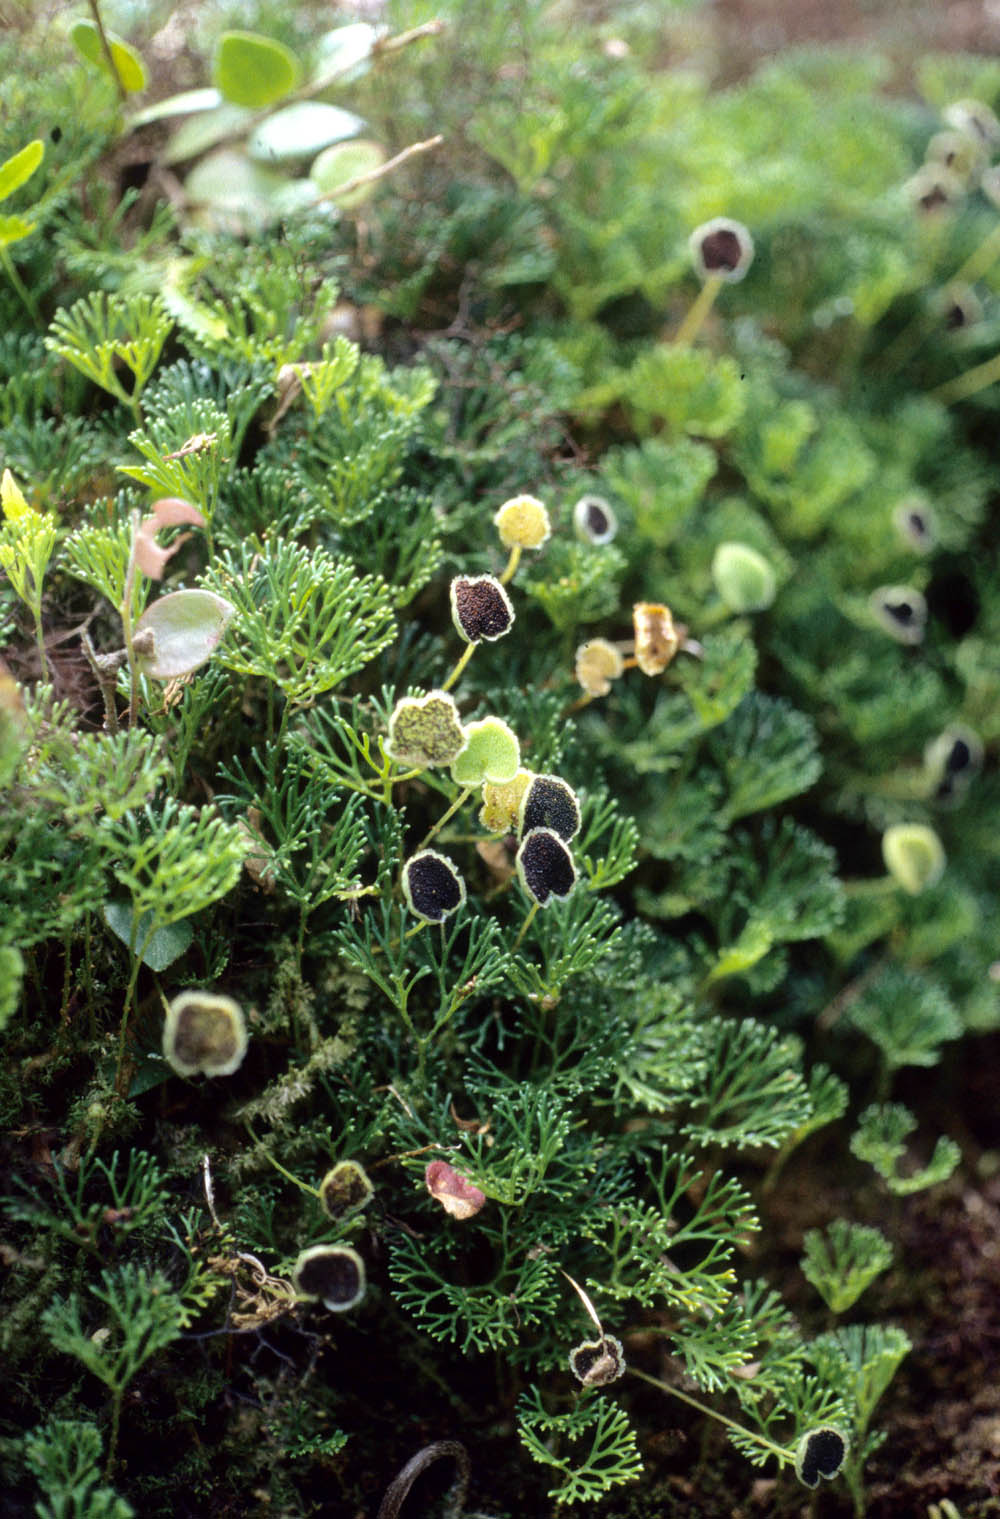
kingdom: Plantae
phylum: Tracheophyta
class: Polypodiopsida
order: Polypodiales
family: Dryopteridaceae
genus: Elaphoglossum
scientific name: Elaphoglossum peltatum
